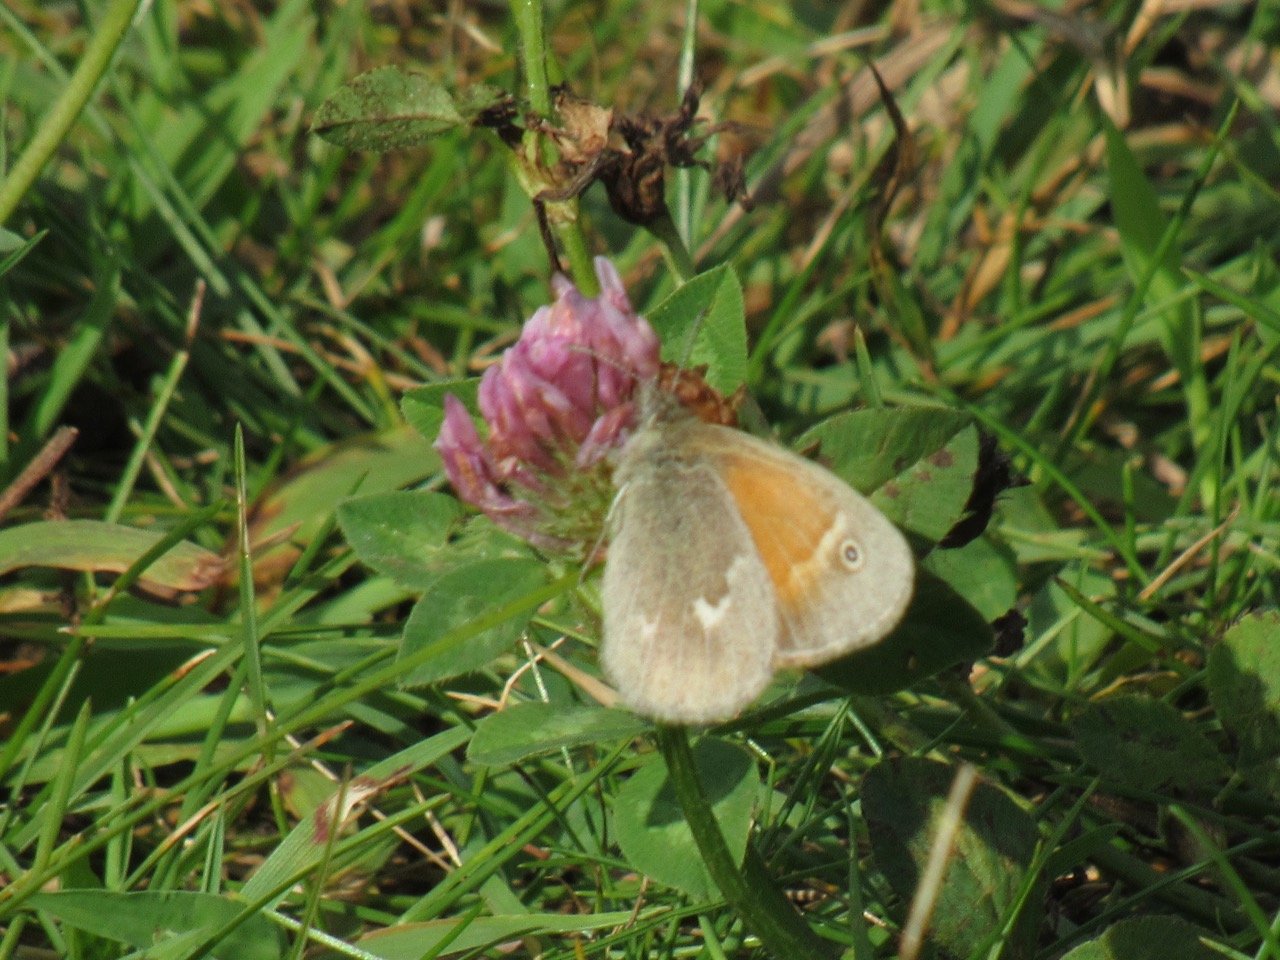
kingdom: Animalia
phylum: Arthropoda
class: Insecta
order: Lepidoptera
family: Nymphalidae
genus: Coenonympha
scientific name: Coenonympha tullia
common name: Large Heath
